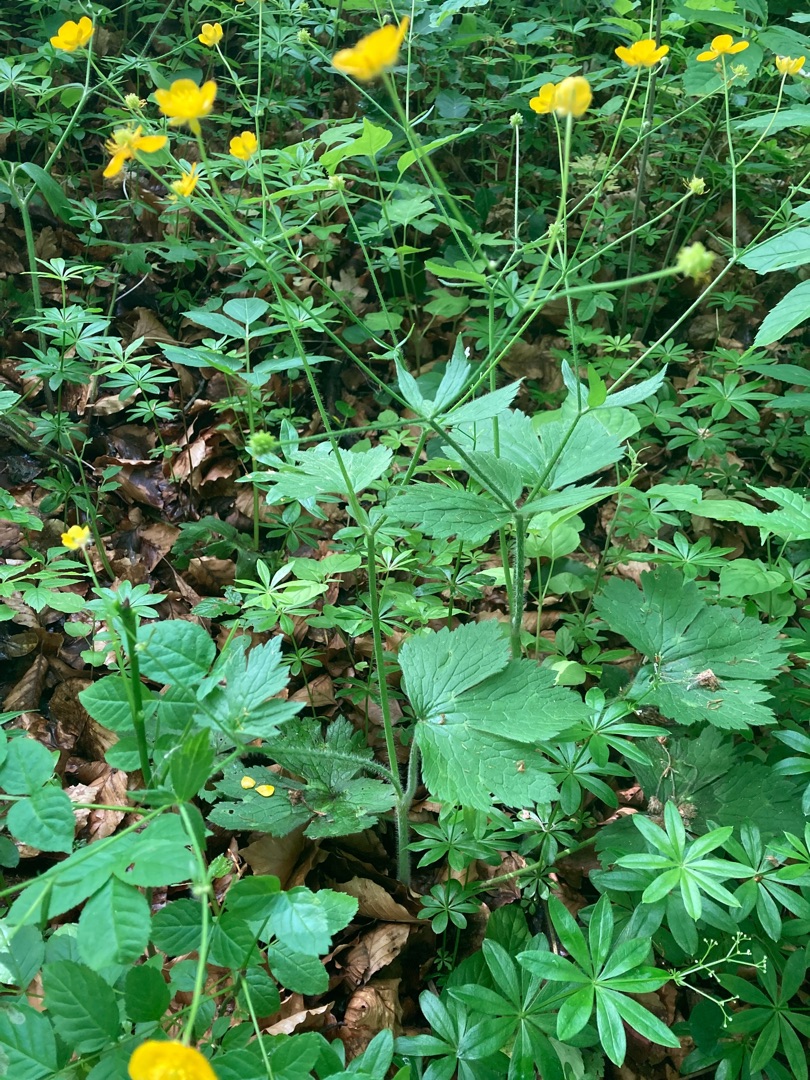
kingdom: Plantae
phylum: Tracheophyta
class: Magnoliopsida
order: Ranunculales
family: Ranunculaceae
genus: Ranunculus
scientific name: Ranunculus lanuginosus
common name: Uldhåret ranunkel
